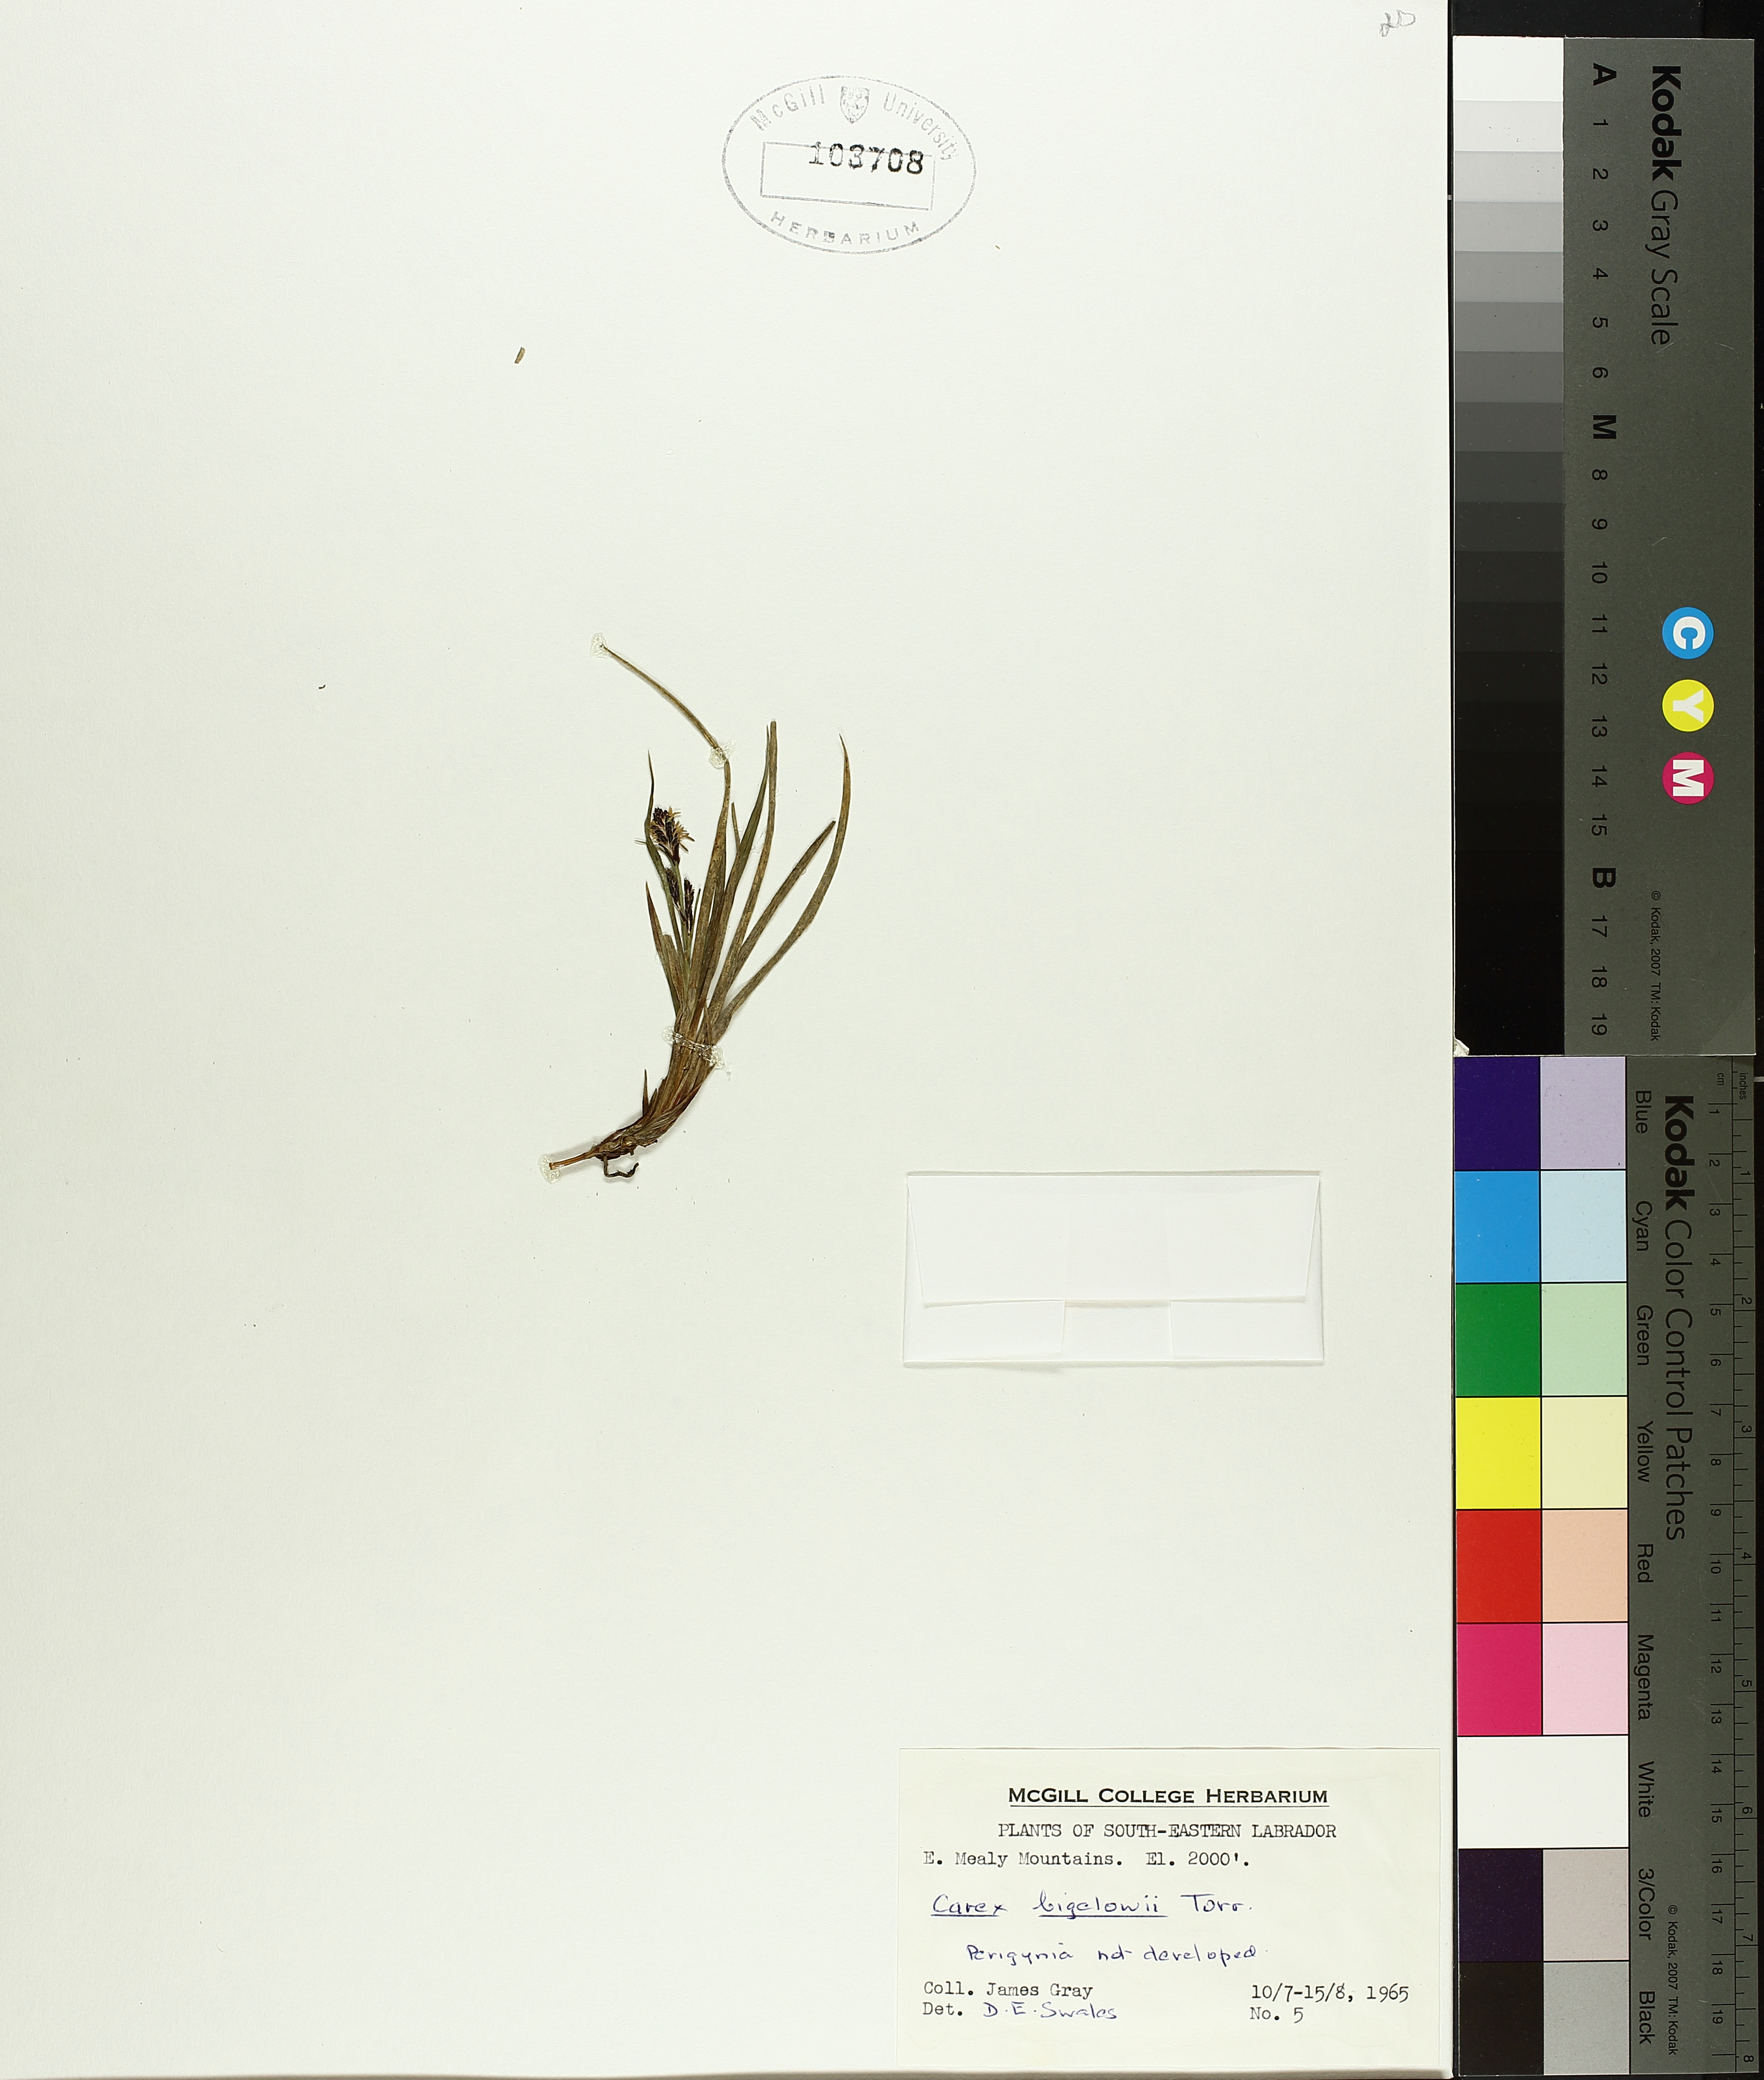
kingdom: Plantae
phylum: Tracheophyta
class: Liliopsida
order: Poales
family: Cyperaceae
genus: Carex
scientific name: Carex bigelowii
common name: Stiff sedge
